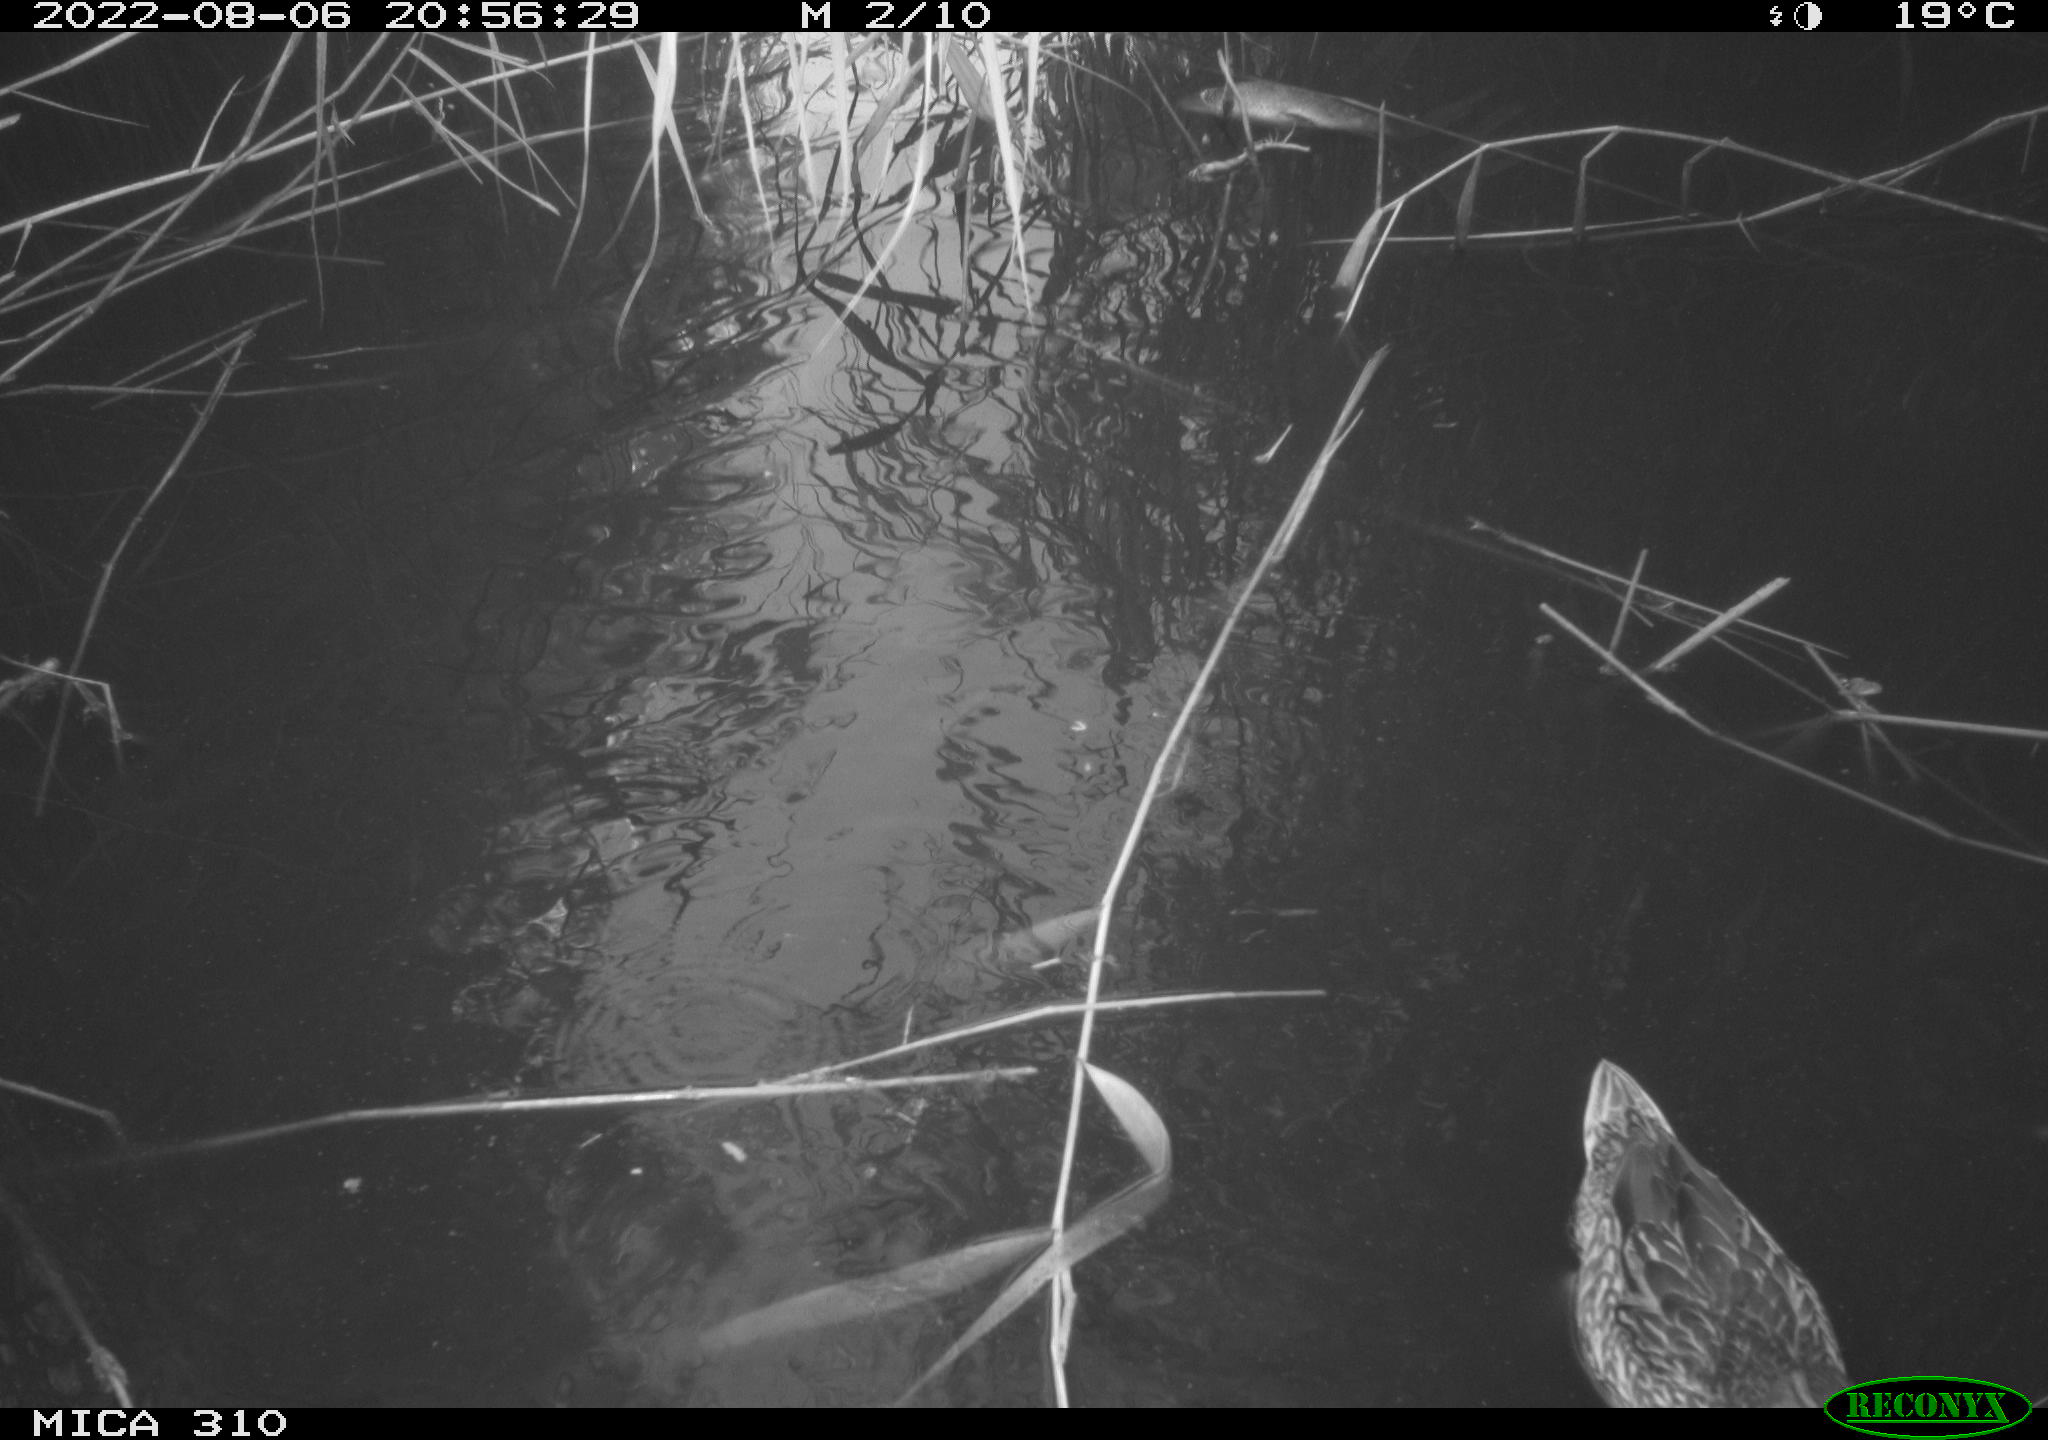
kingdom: Animalia
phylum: Chordata
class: Aves
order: Anseriformes
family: Anatidae
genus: Anas
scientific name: Anas platyrhynchos
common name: Mallard
